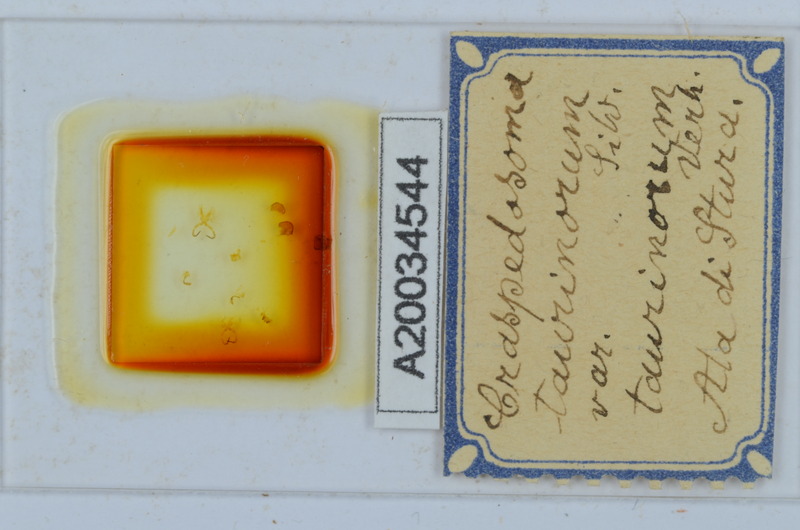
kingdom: Animalia
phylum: Arthropoda
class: Diplopoda
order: Chordeumatida
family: Craspedosomatidae
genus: Craspedosoma
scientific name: Craspedosoma taurinorum
